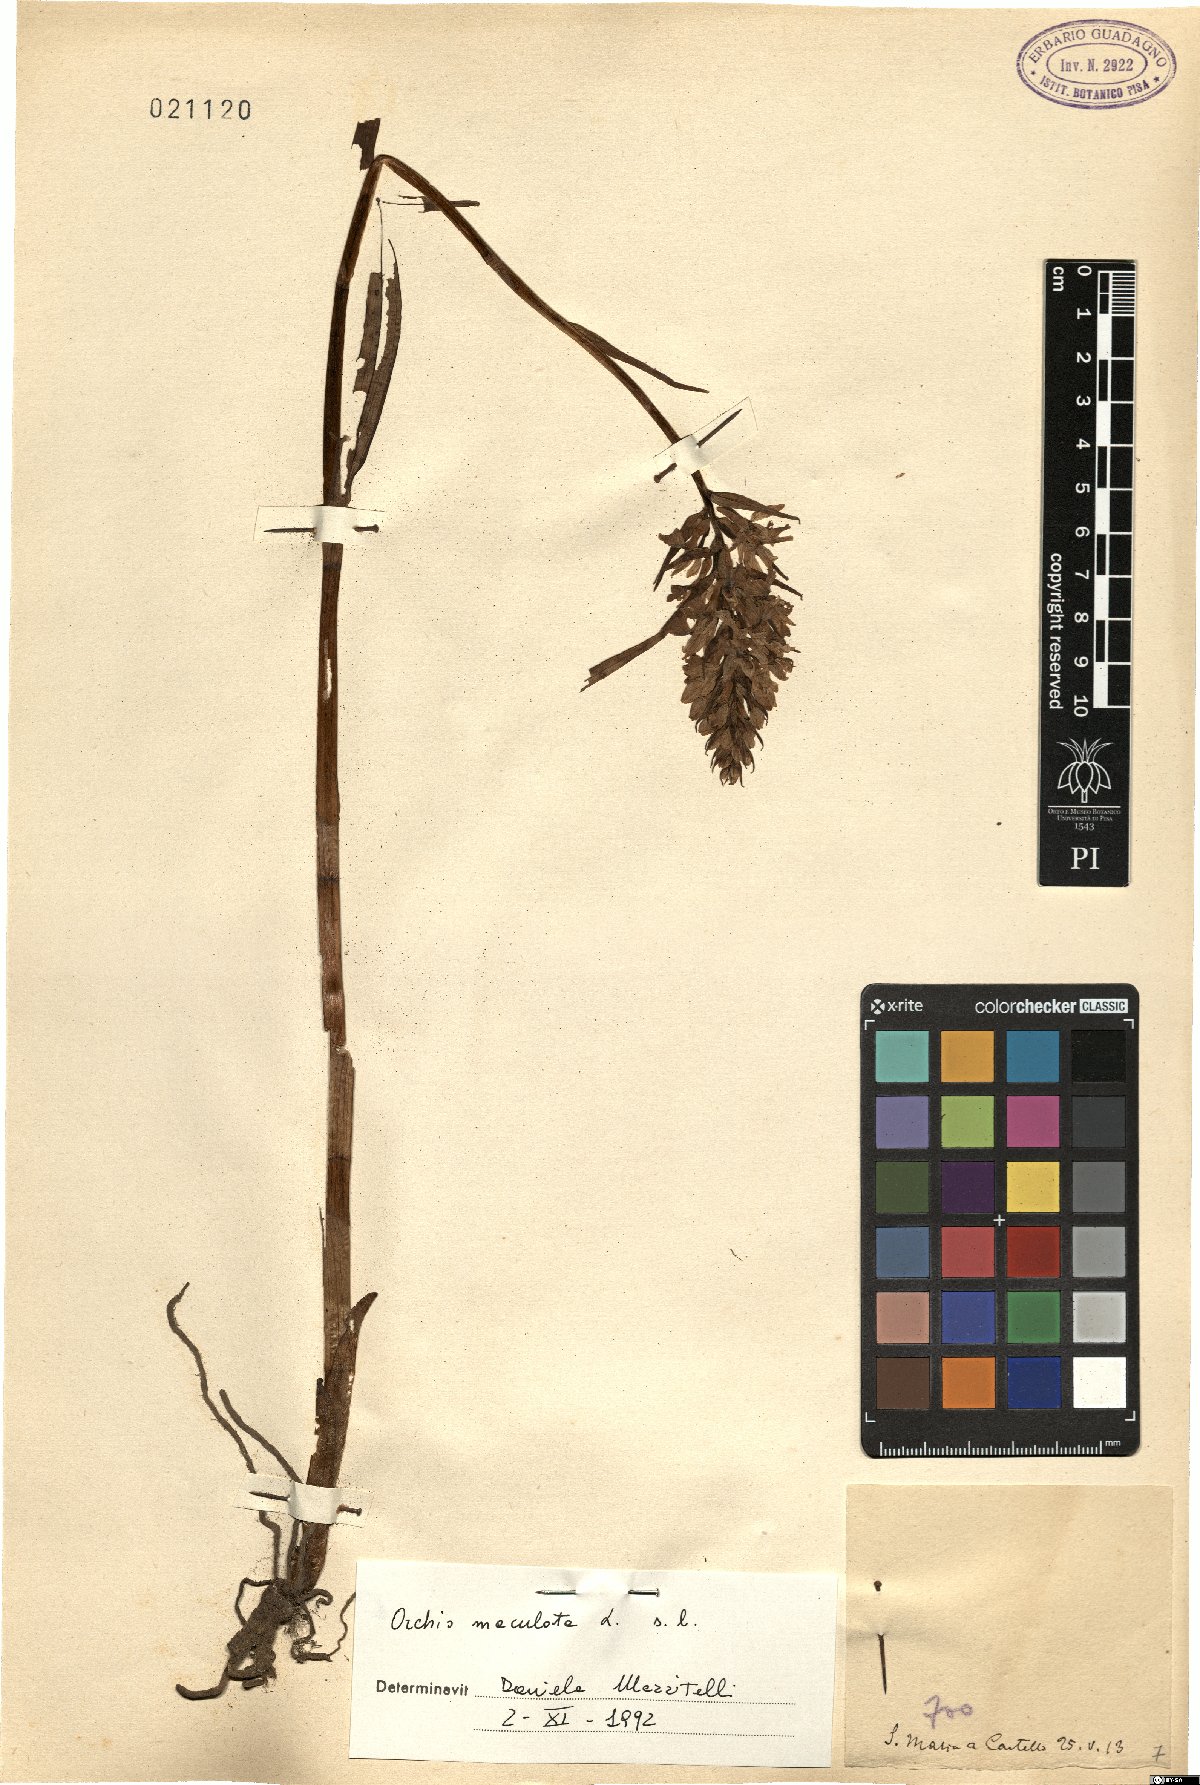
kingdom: Plantae
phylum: Tracheophyta
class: Liliopsida
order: Asparagales
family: Orchidaceae
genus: Dactylorhiza
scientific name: Dactylorhiza maculata
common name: Heath spotted-orchid
